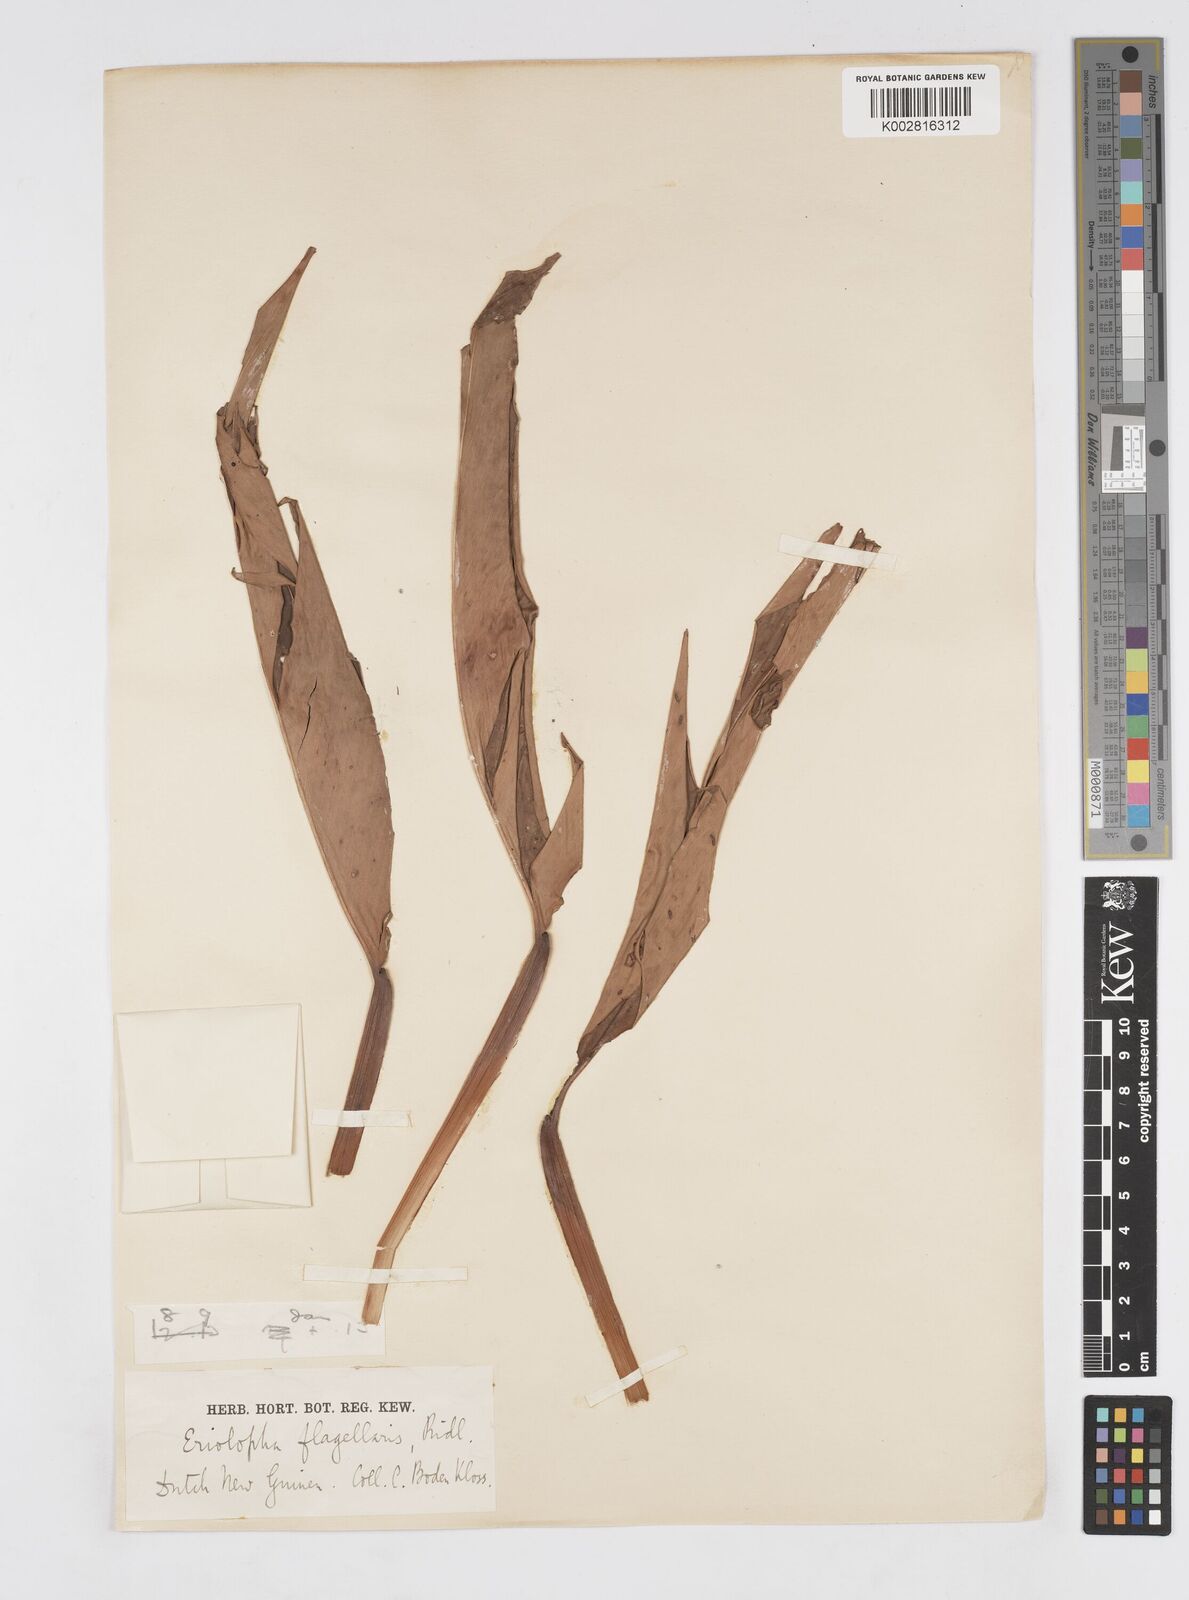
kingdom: Plantae
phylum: Tracheophyta
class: Liliopsida
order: Zingiberales
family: Zingiberaceae
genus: Alpinia
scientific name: Alpinia flagellaris
